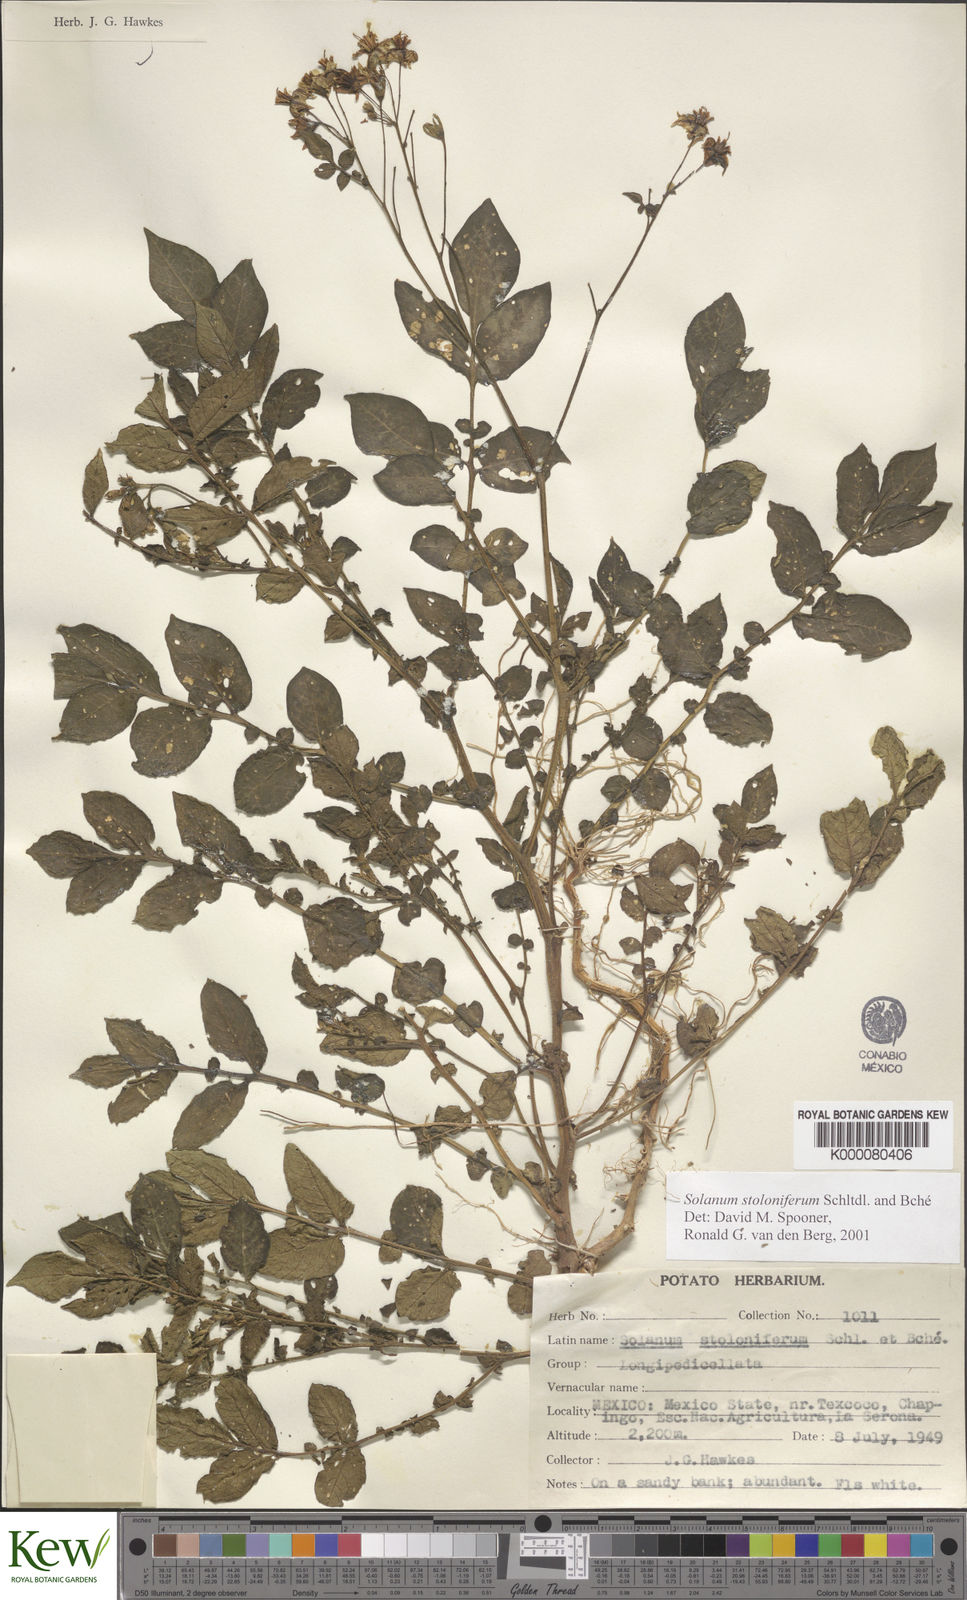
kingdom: Plantae
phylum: Tracheophyta
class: Magnoliopsida
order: Solanales
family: Solanaceae
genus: Solanum
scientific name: Solanum stoloniferum
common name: Fendler's nighshade
